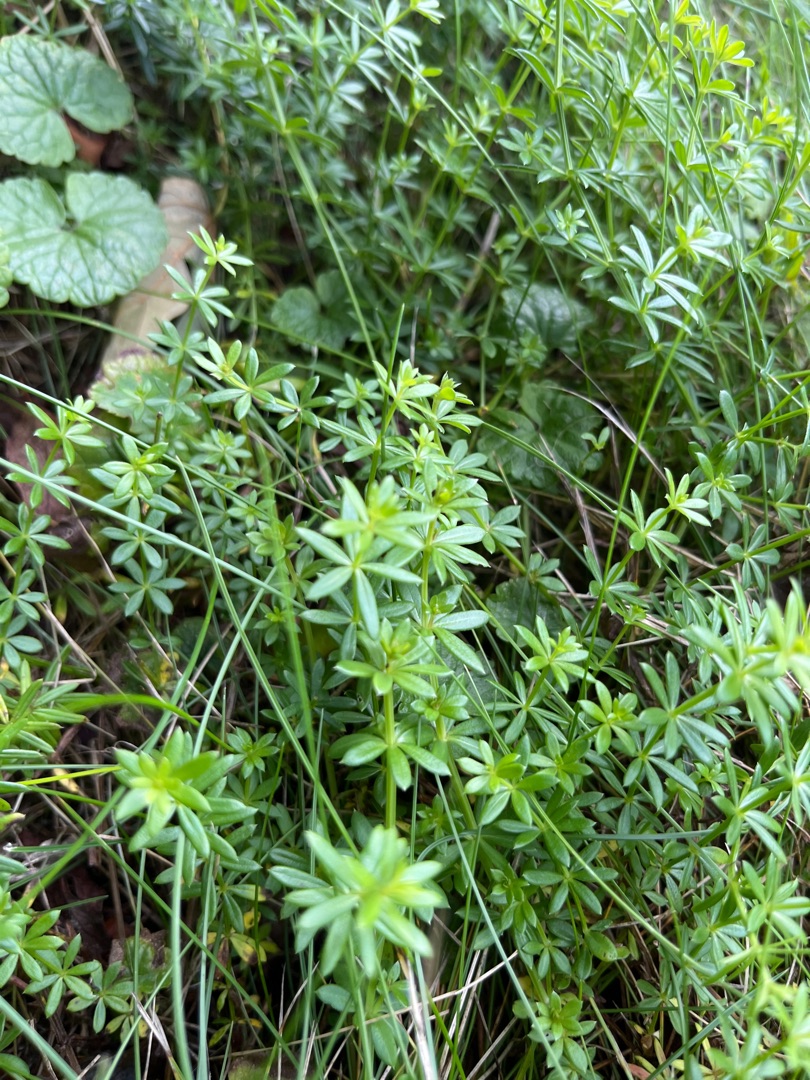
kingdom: Plantae
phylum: Tracheophyta
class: Magnoliopsida
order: Gentianales
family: Rubiaceae
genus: Galium
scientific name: Galium mollugo
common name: Hvid snerre
